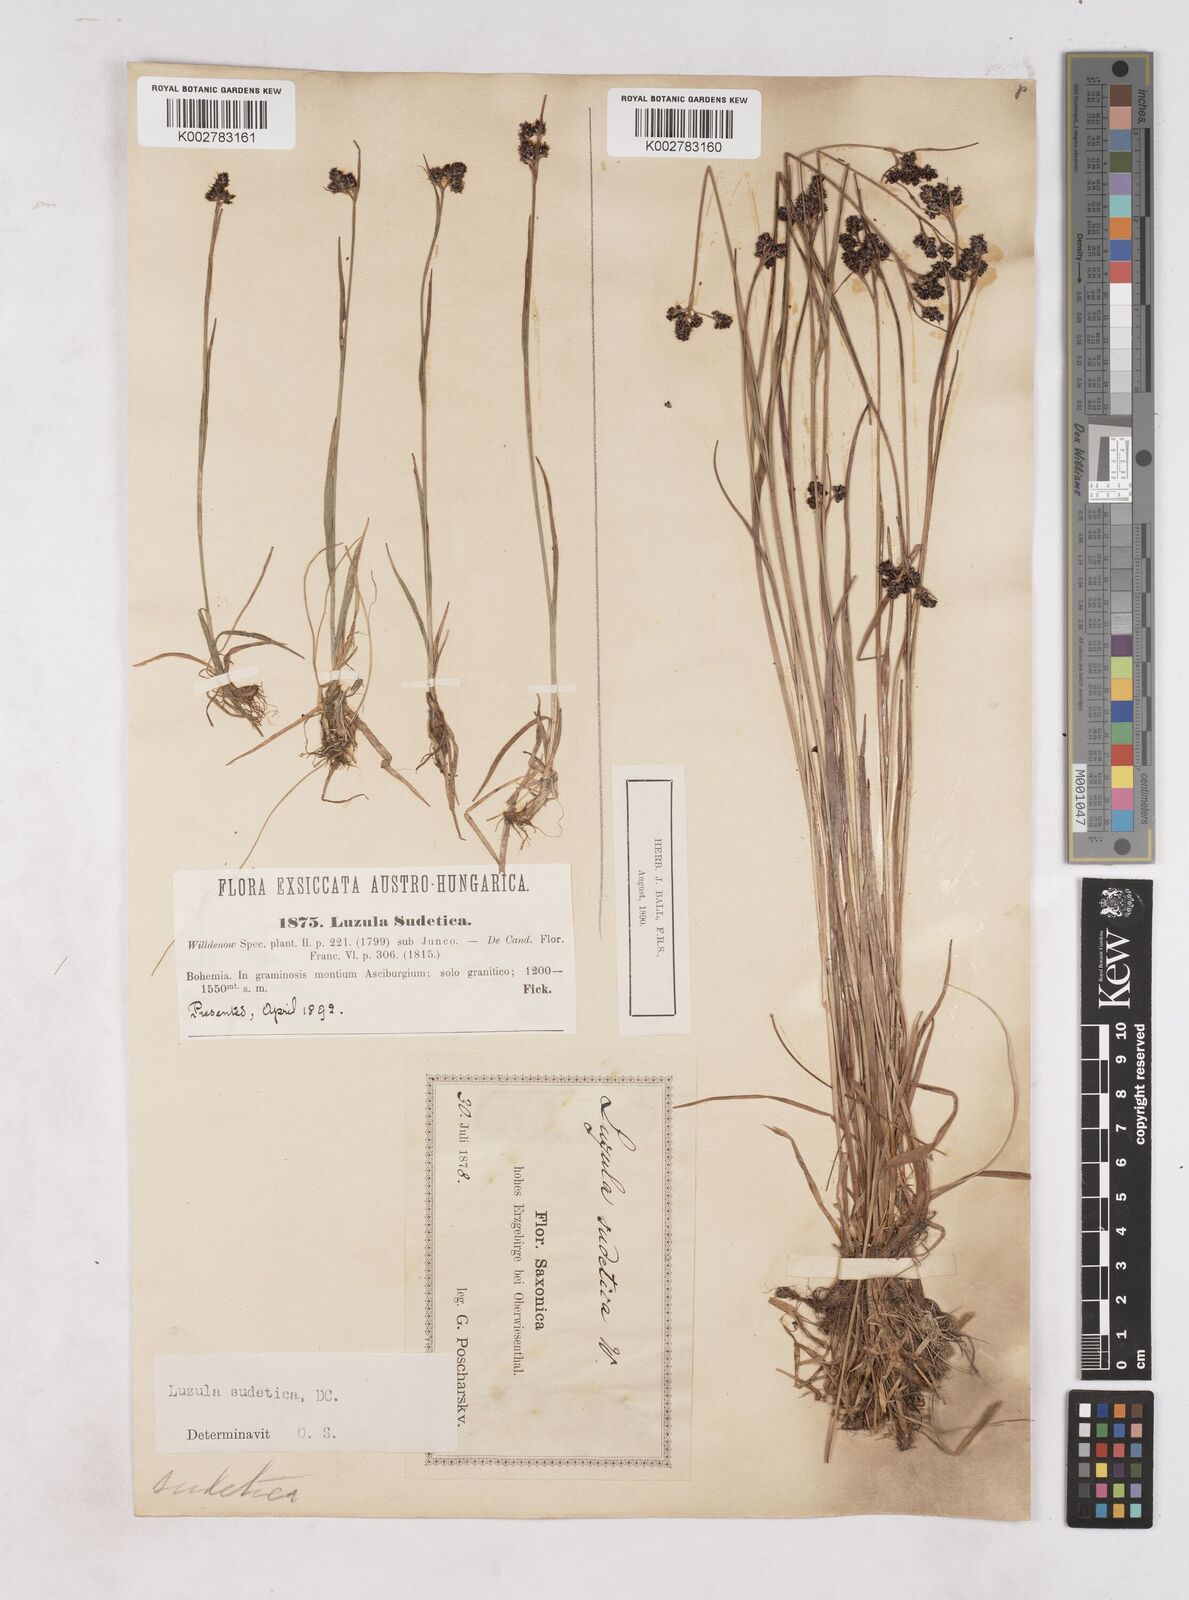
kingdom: Plantae
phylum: Tracheophyta
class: Liliopsida
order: Poales
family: Juncaceae
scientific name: Juncaceae
